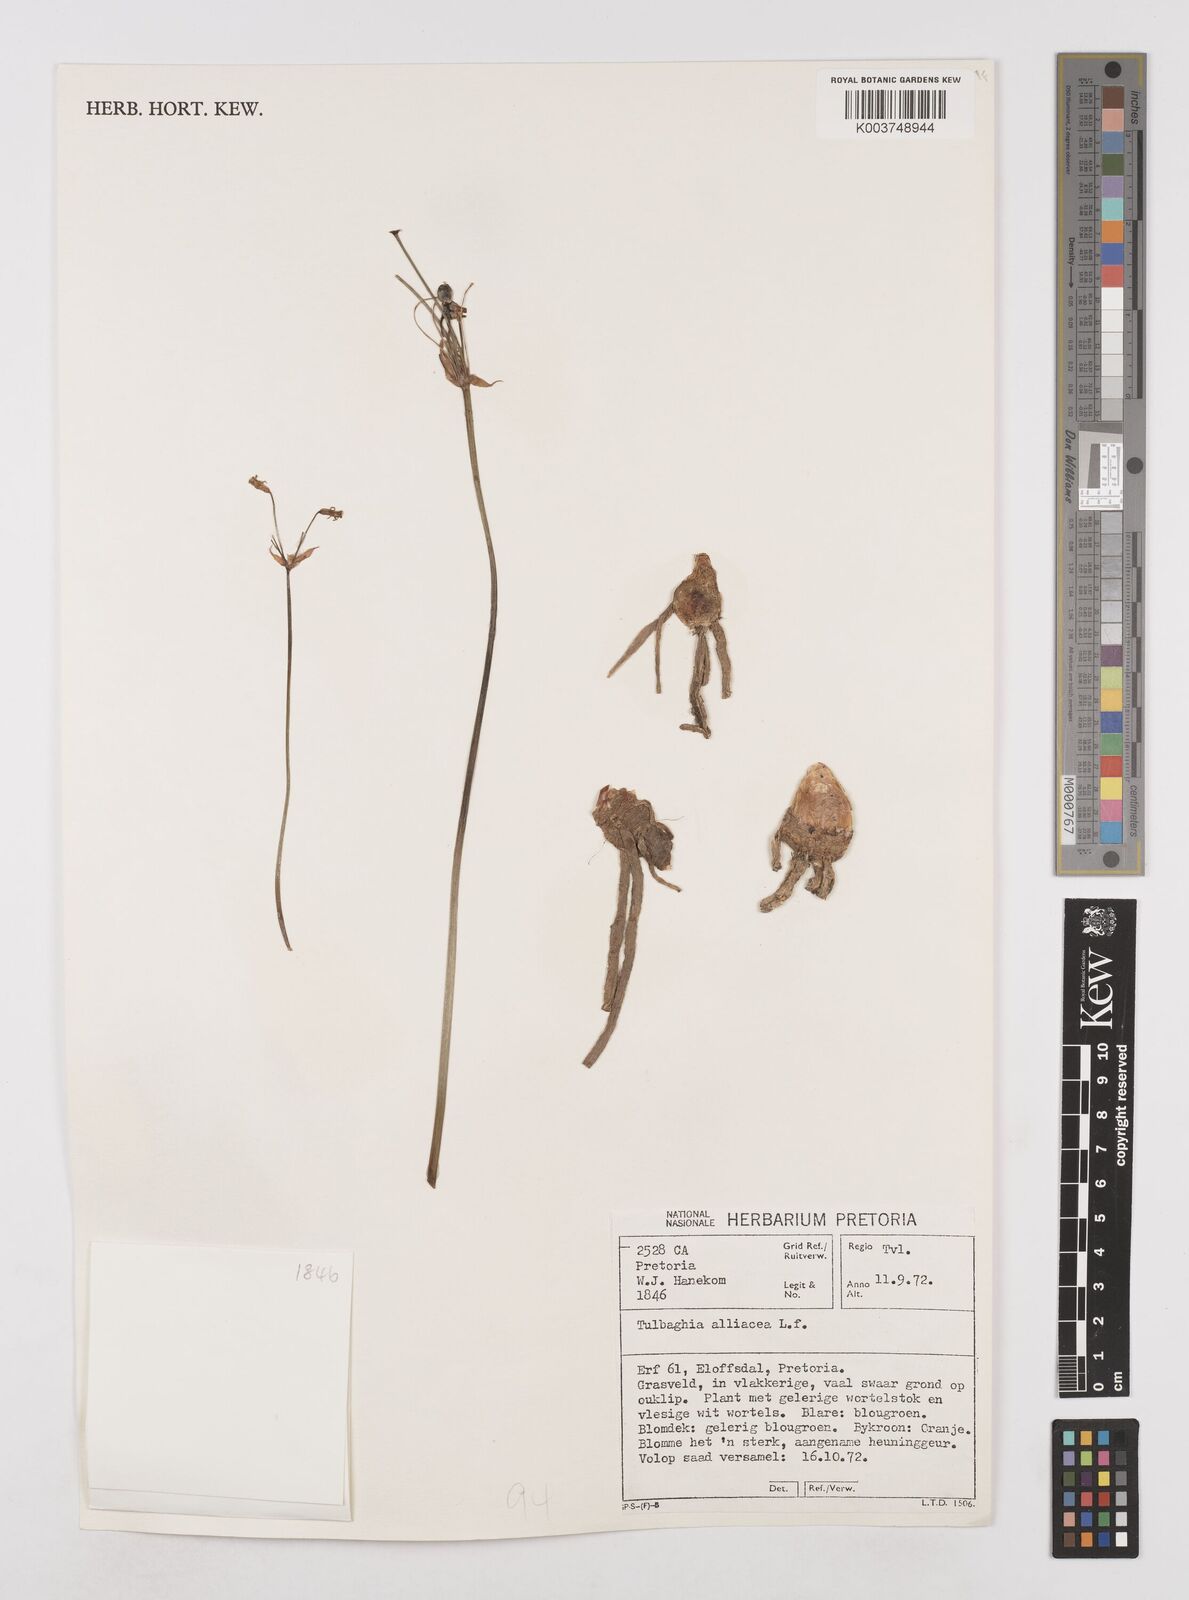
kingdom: Plantae
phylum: Tracheophyta
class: Liliopsida
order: Asparagales
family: Amaryllidaceae
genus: Tulbaghia
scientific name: Tulbaghia alliacea
